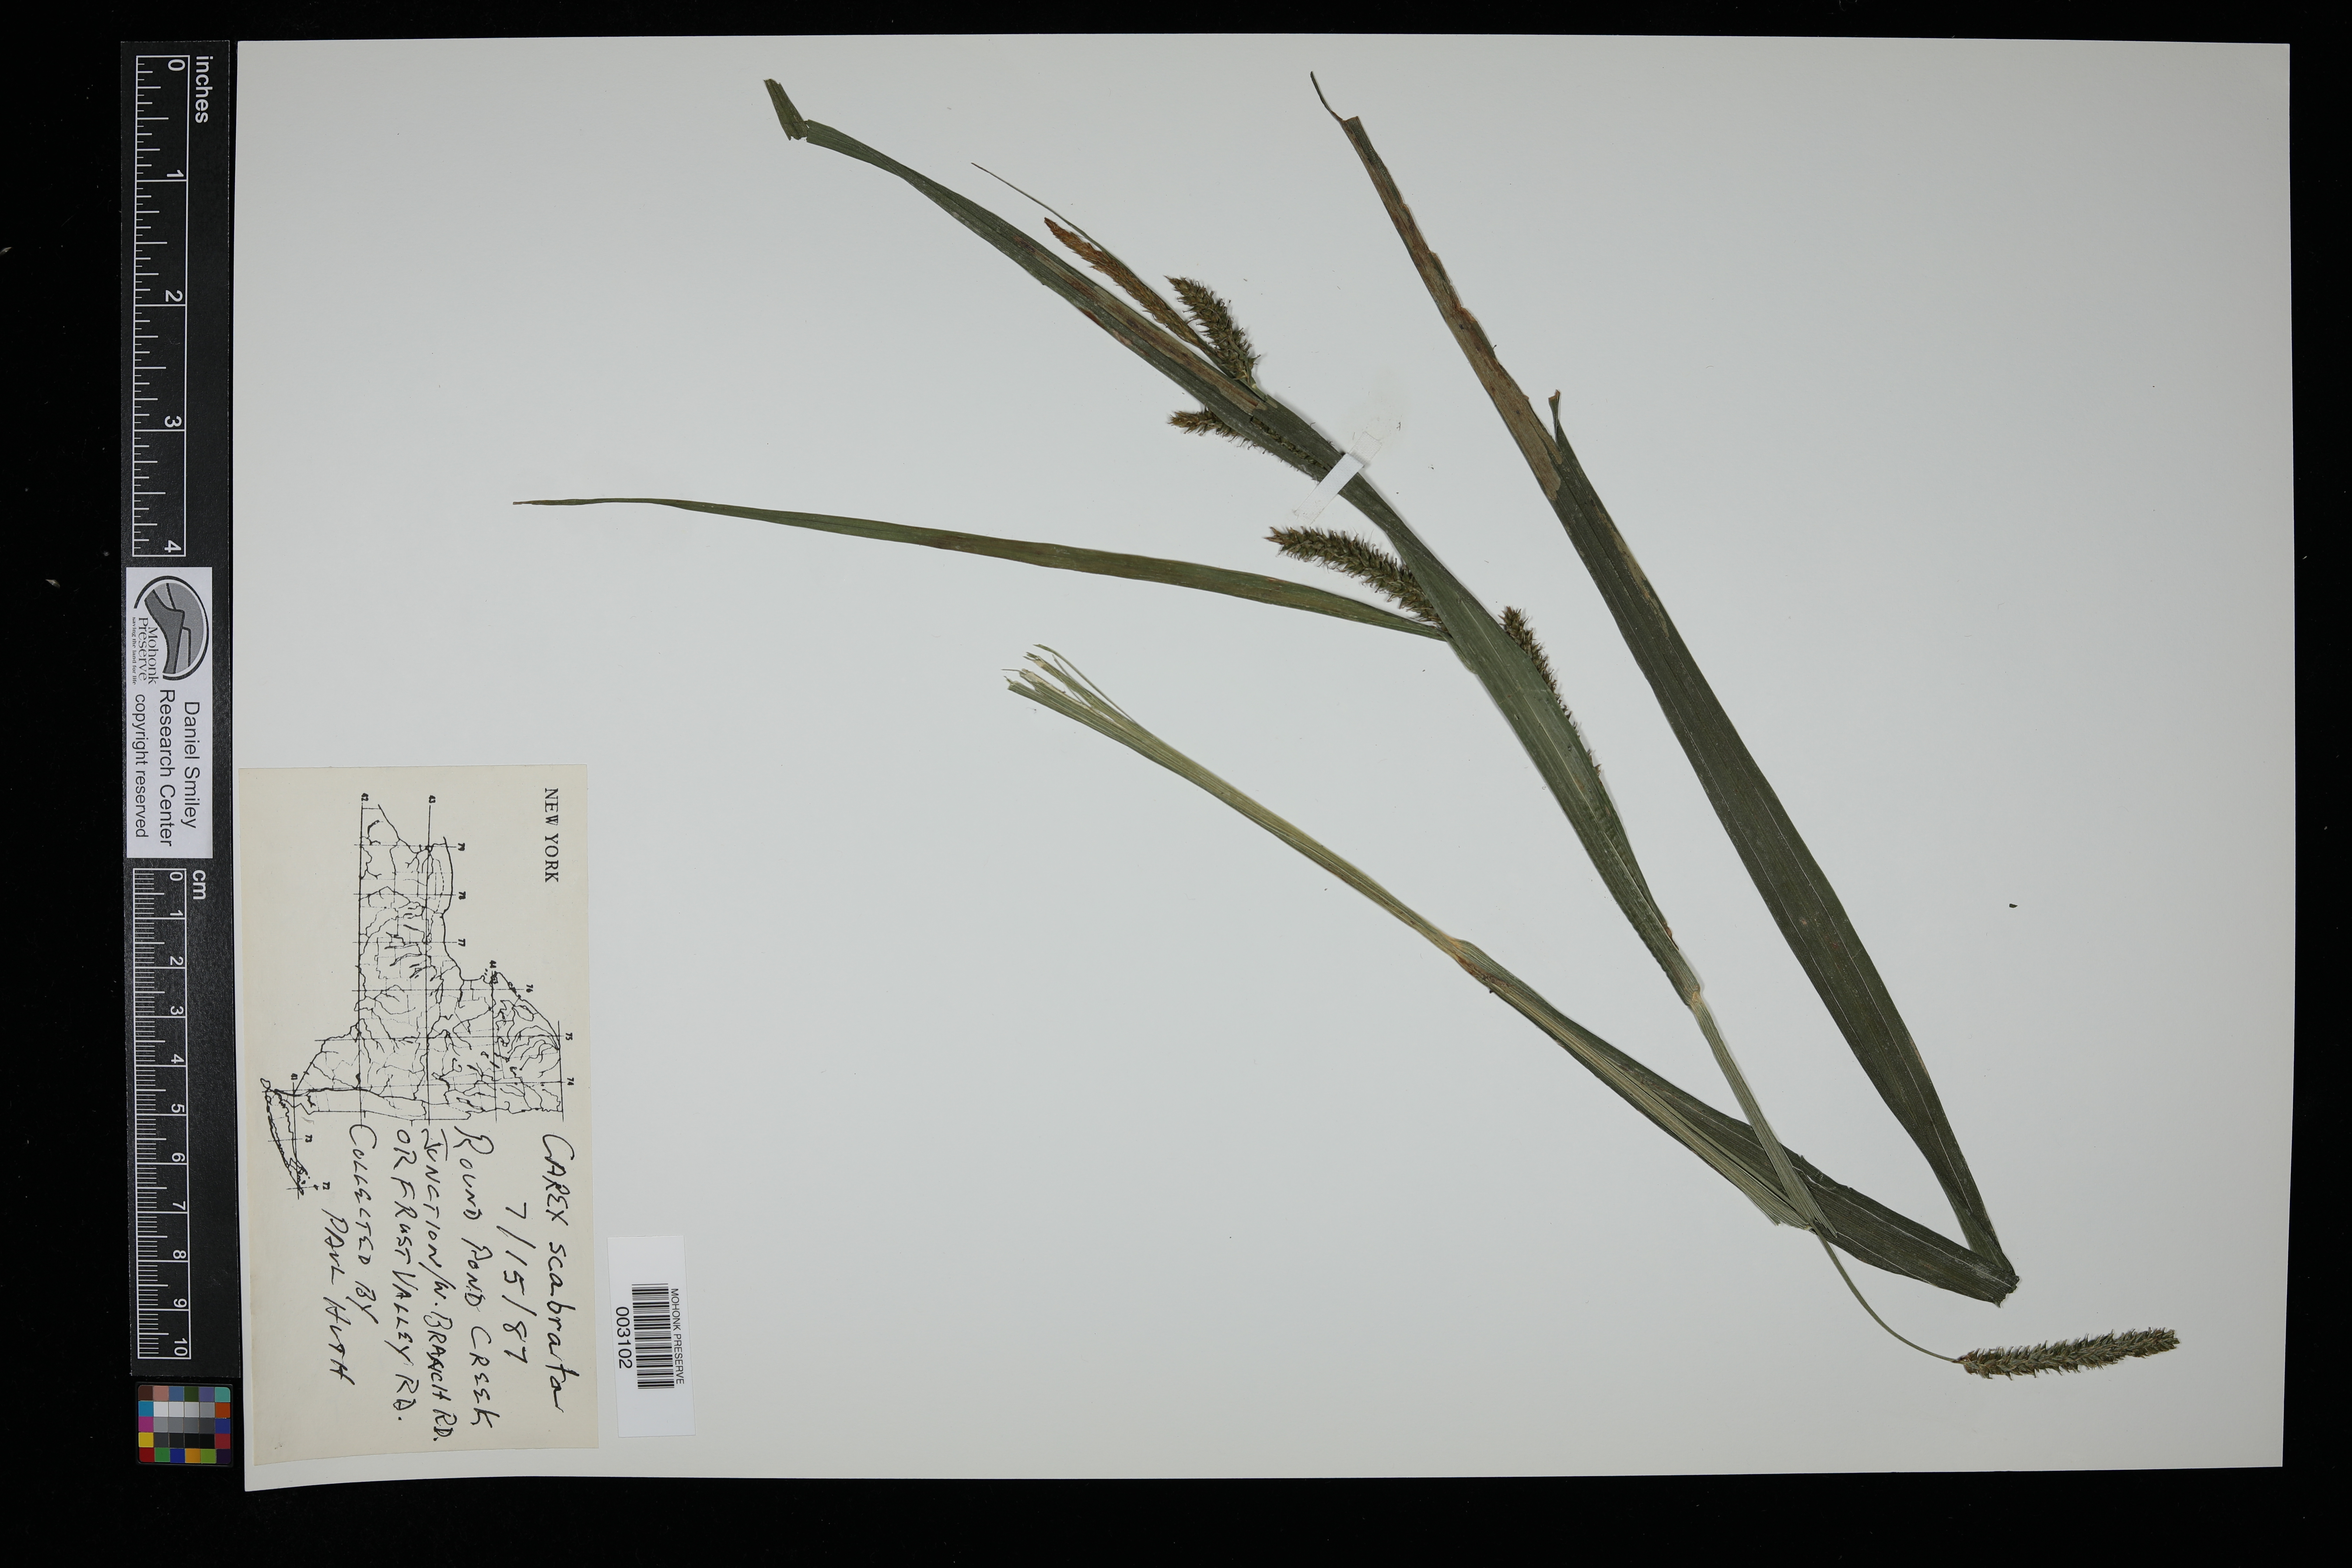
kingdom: Plantae
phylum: Tracheophyta
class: Liliopsida
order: Poales
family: Cyperaceae
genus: Carex
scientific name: Carex scabrata
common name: Eastern rough sedge
